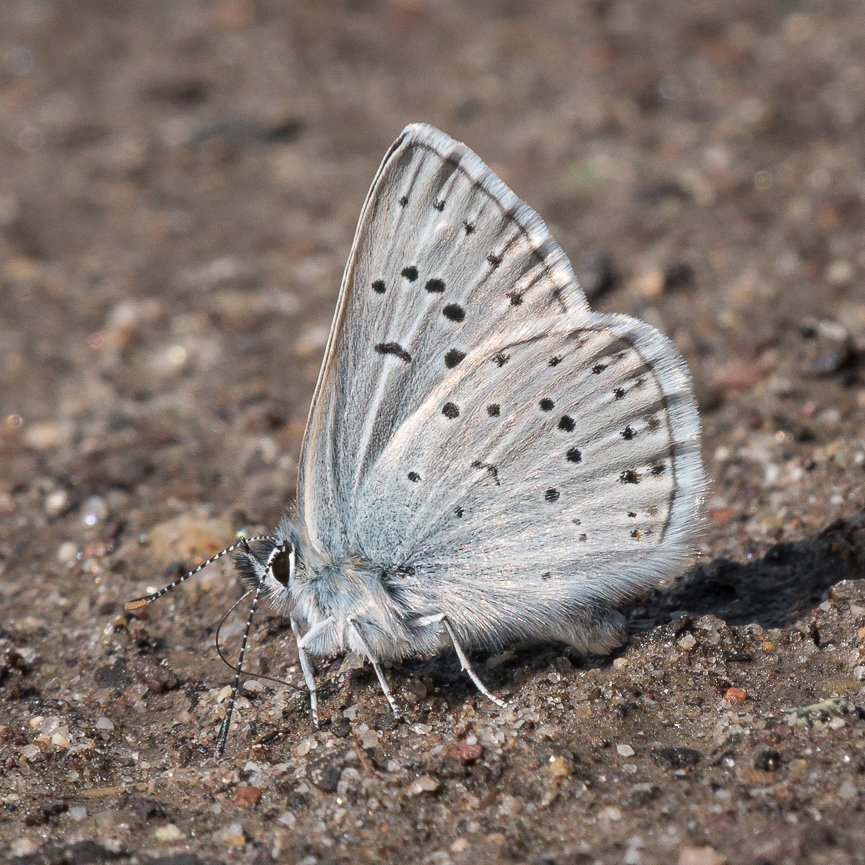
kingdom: Animalia
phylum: Arthropoda
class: Insecta
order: Lepidoptera
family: Lycaenidae
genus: Plebejus
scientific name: Plebejus saepiolus
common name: Greenish Blue
